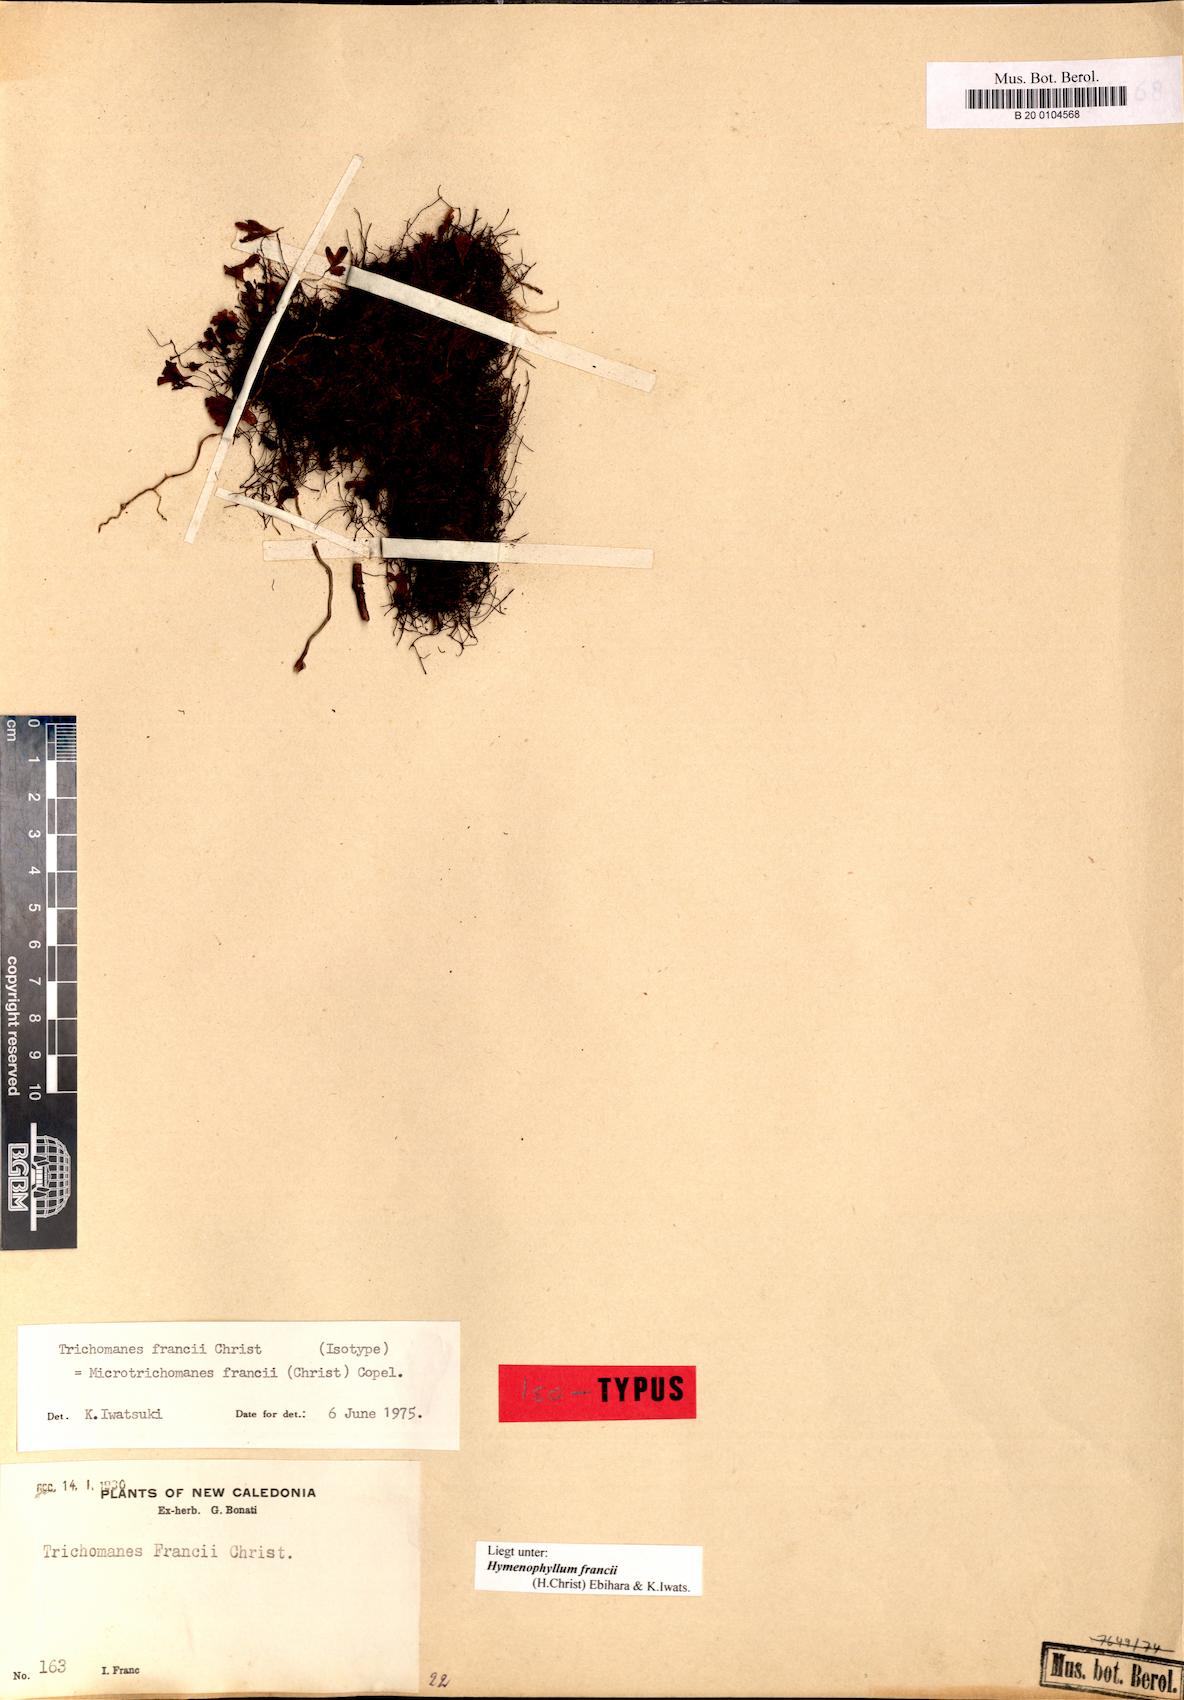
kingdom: Plantae
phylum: Tracheophyta
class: Polypodiopsida
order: Hymenophyllales
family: Hymenophyllaceae
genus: Hymenophyllum
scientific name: Hymenophyllum francii
